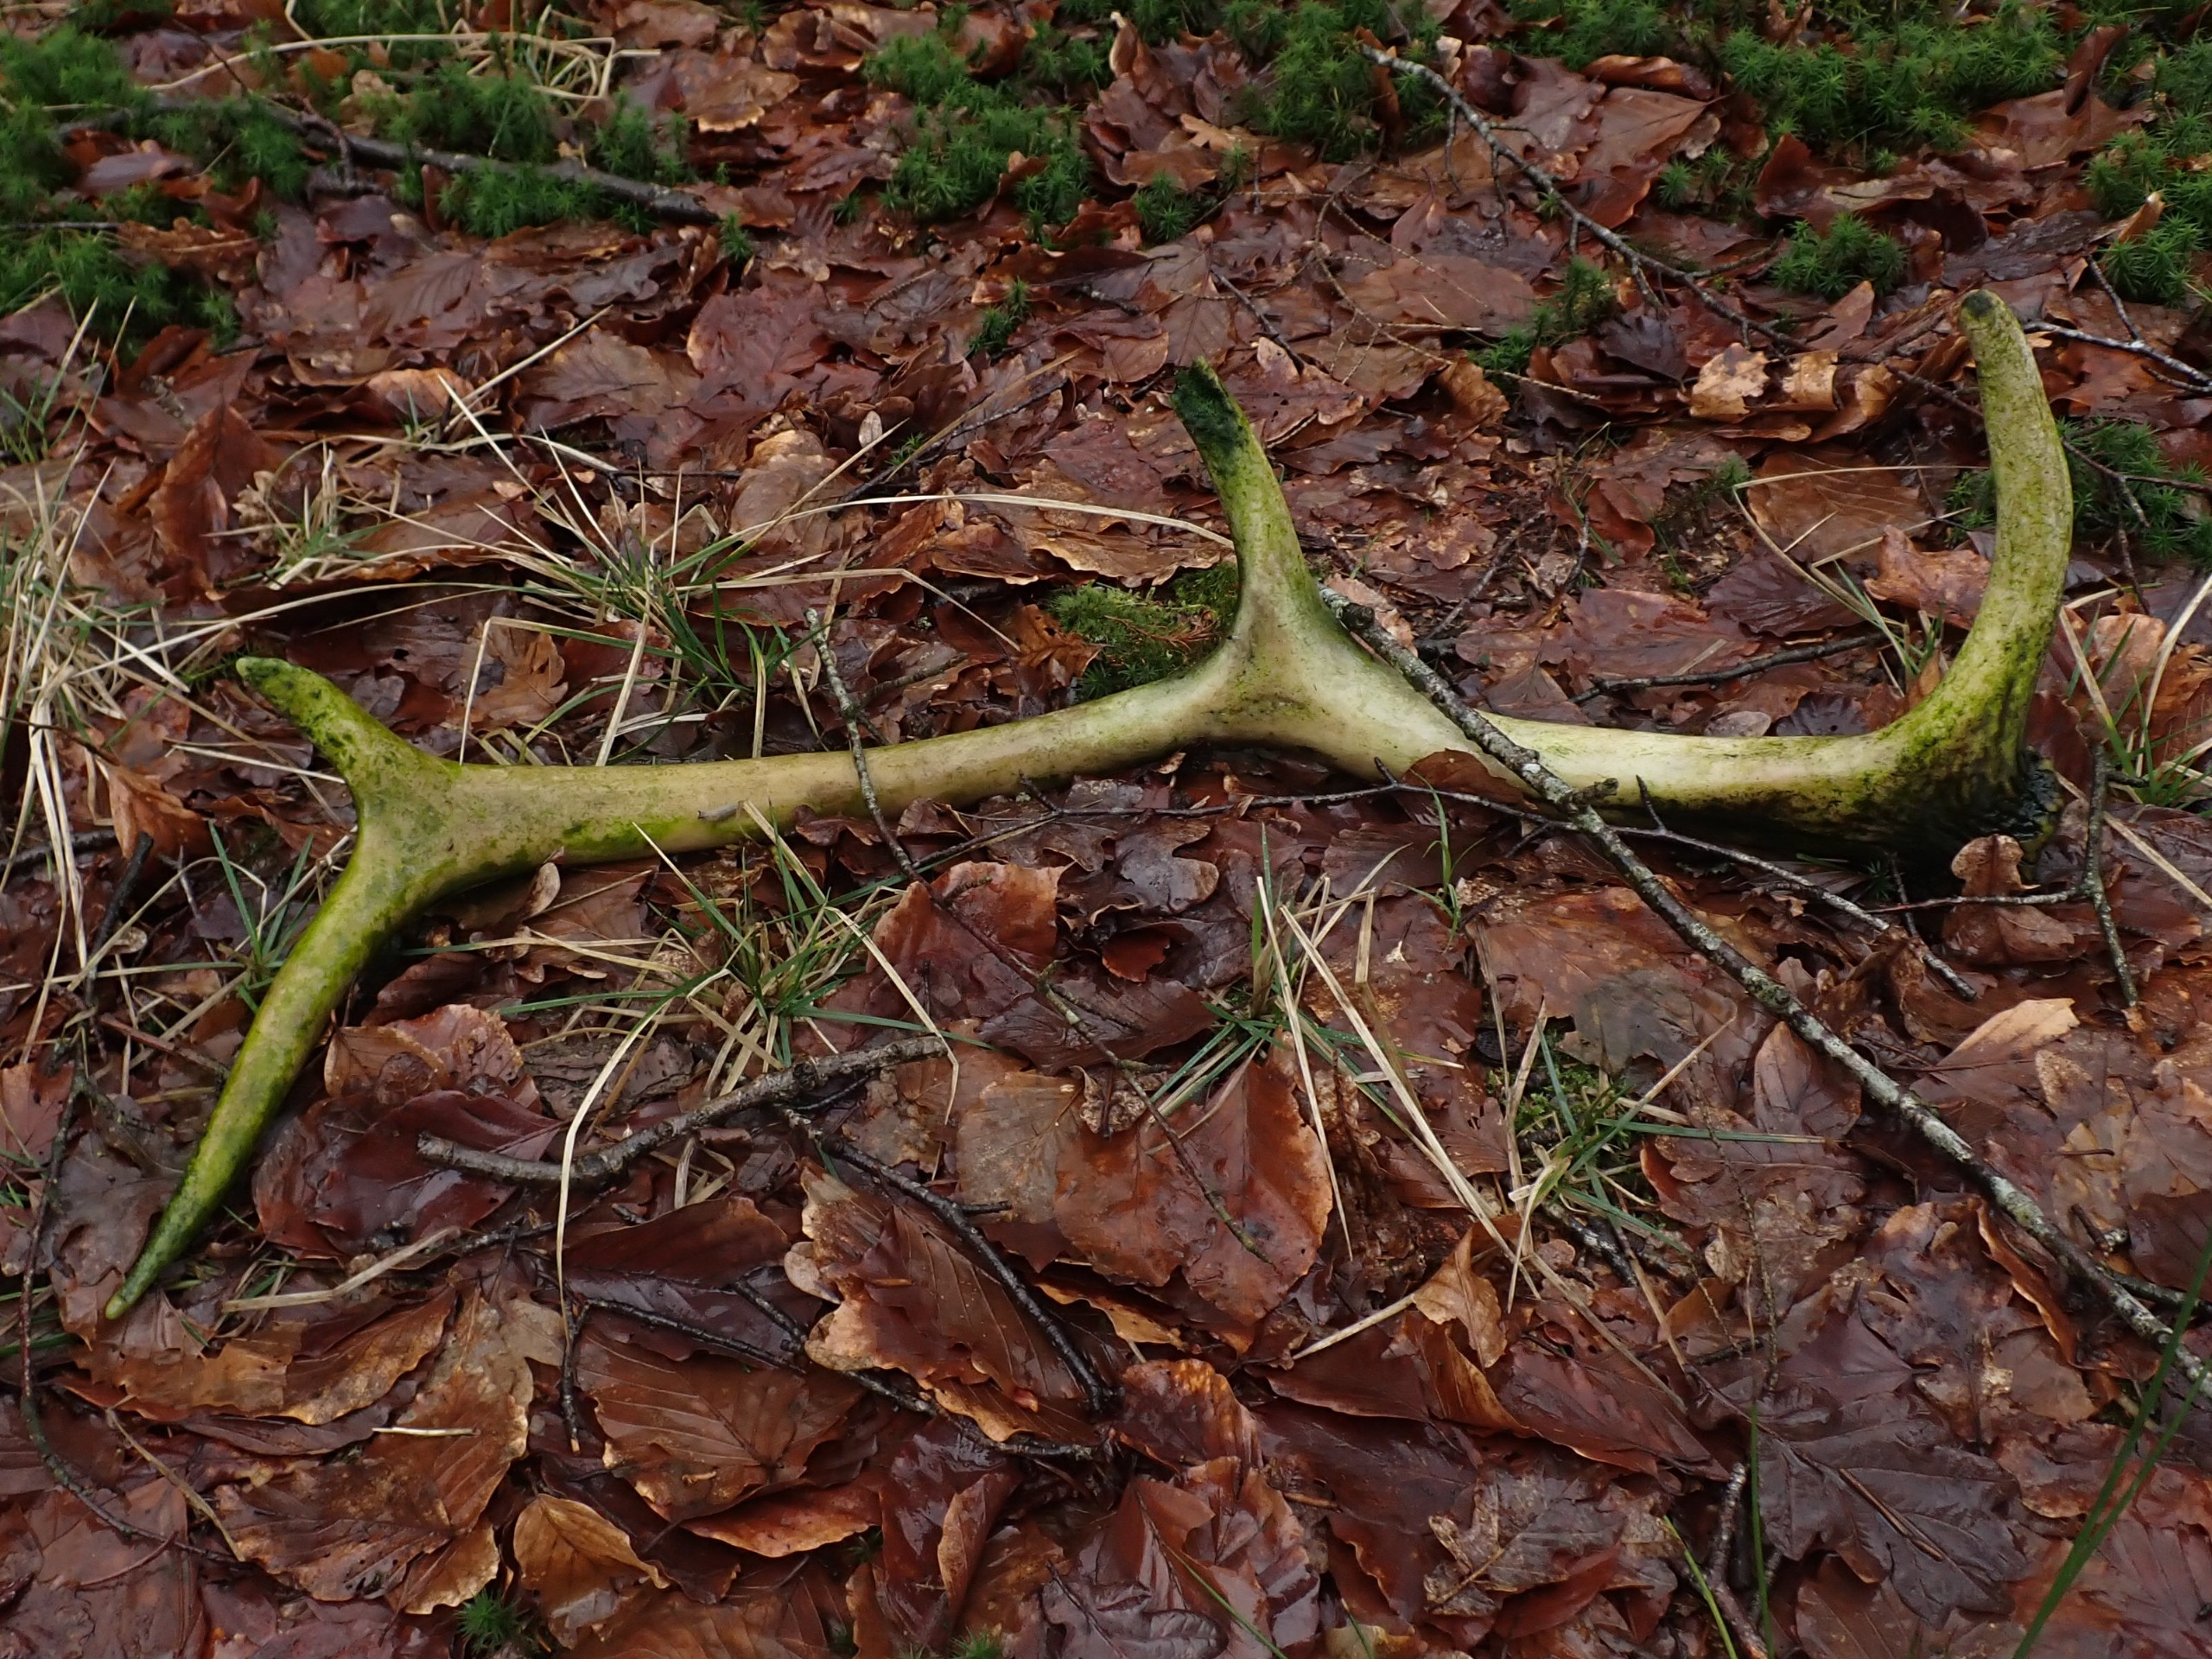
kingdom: Animalia
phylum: Chordata
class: Mammalia
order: Artiodactyla
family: Cervidae
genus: Cervus
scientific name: Cervus elaphus
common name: Krondyr
